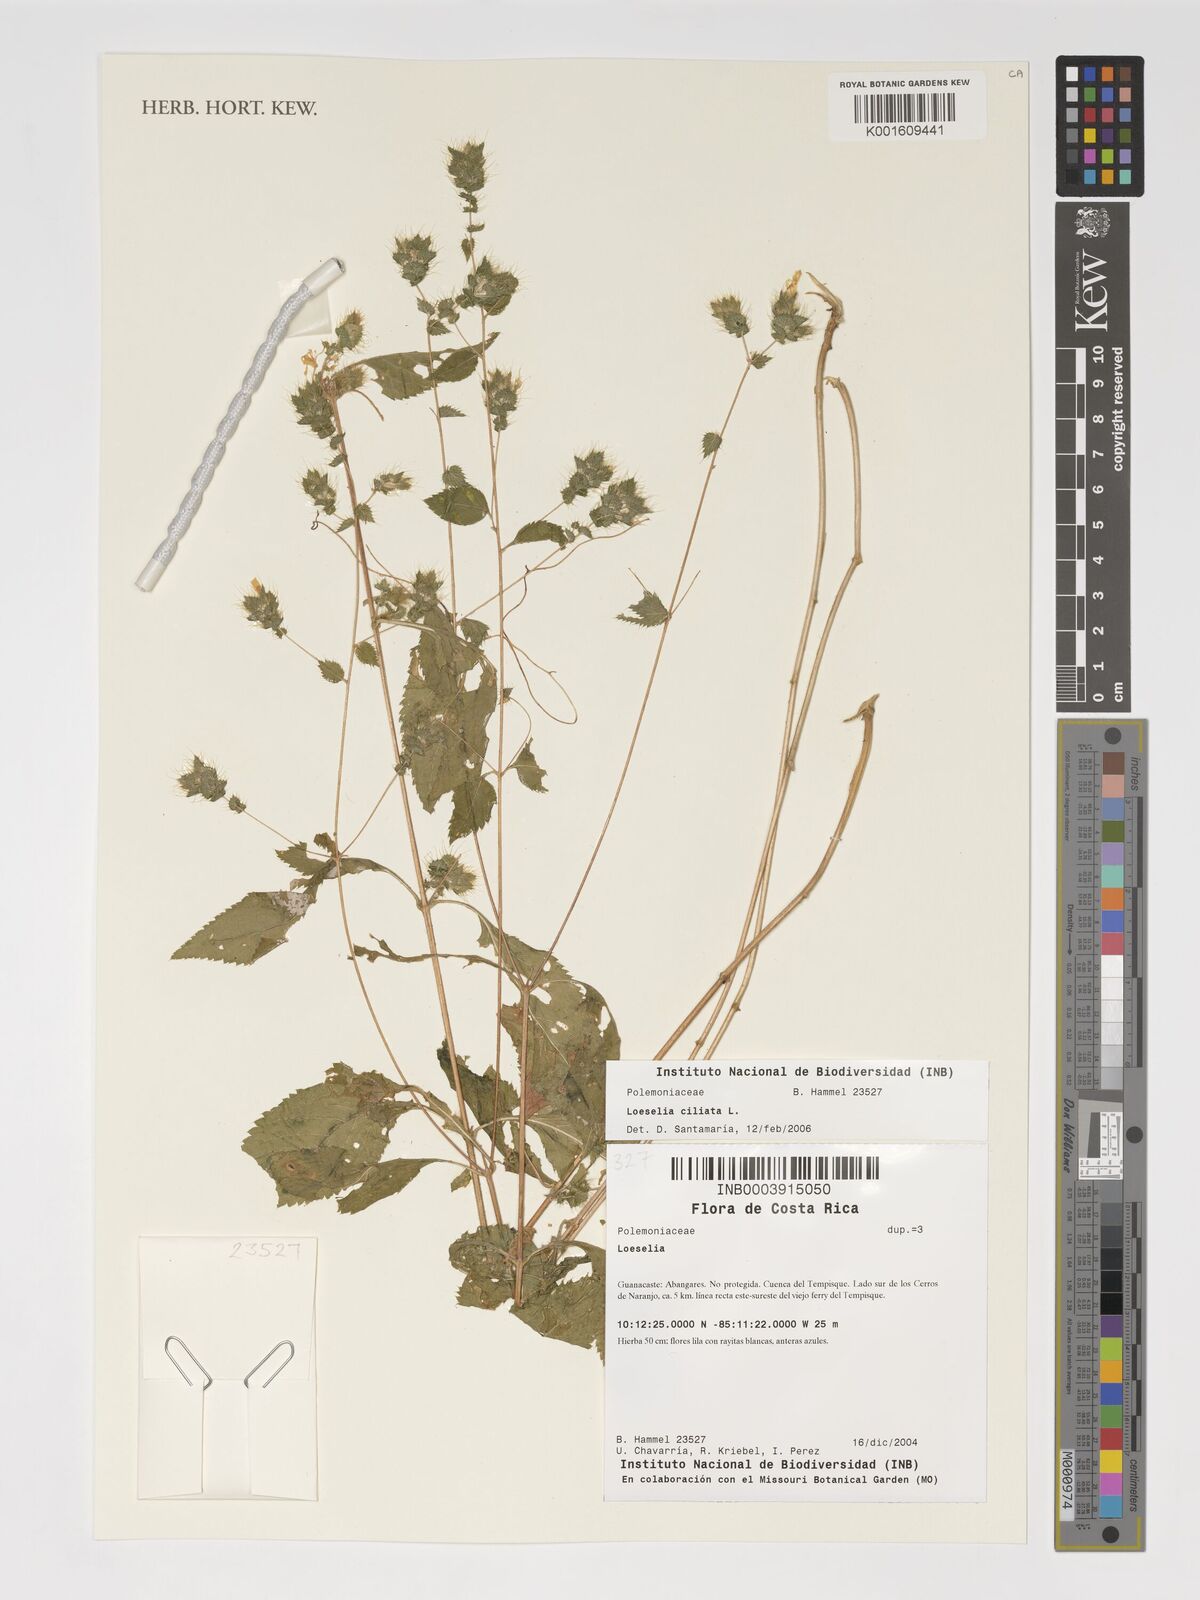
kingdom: Plantae
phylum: Tracheophyta
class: Magnoliopsida
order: Ericales
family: Polemoniaceae
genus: Loeselia
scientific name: Loeselia ciliata
